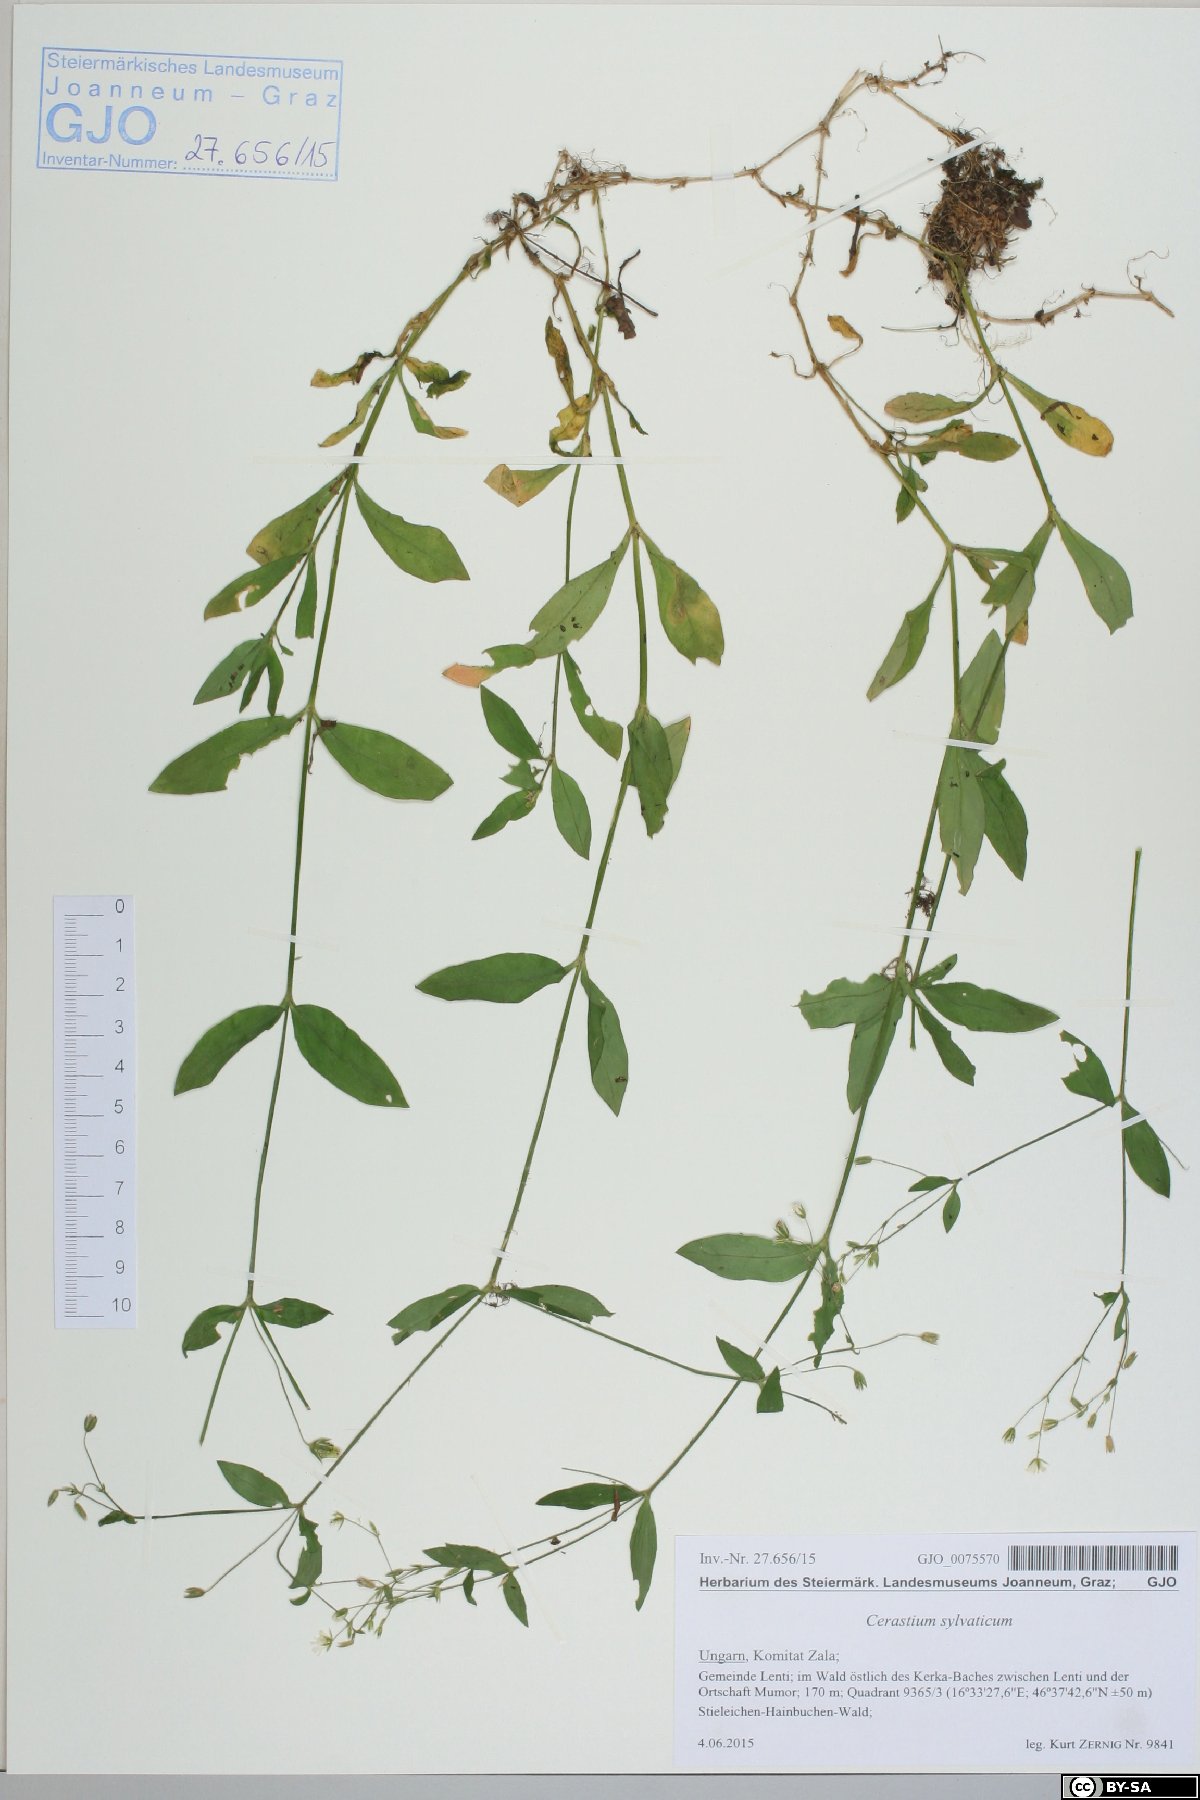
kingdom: Plantae
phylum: Tracheophyta
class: Magnoliopsida
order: Caryophyllales
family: Caryophyllaceae
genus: Cerastium
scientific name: Cerastium sylvaticum
